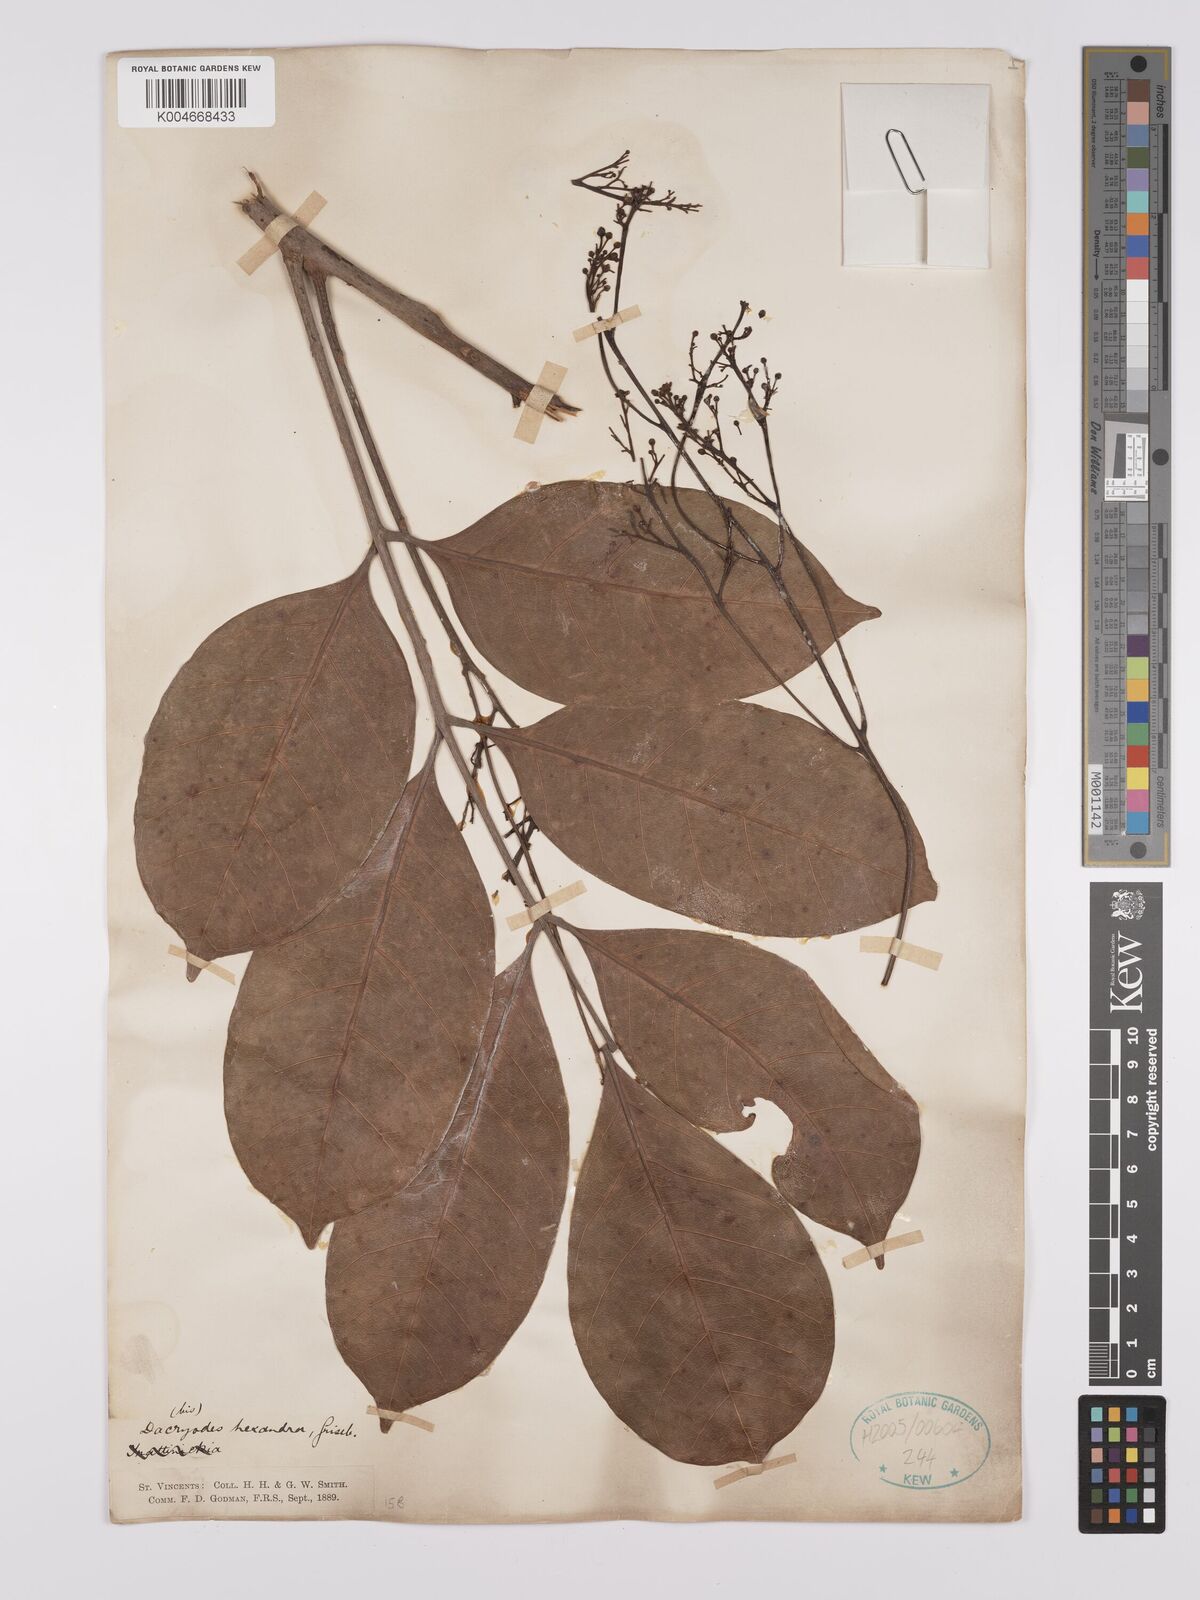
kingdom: Plantae
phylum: Tracheophyta
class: Magnoliopsida
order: Sapindales
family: Burseraceae
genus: Dacryodes
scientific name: Dacryodes excelsa
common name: Candlewood
